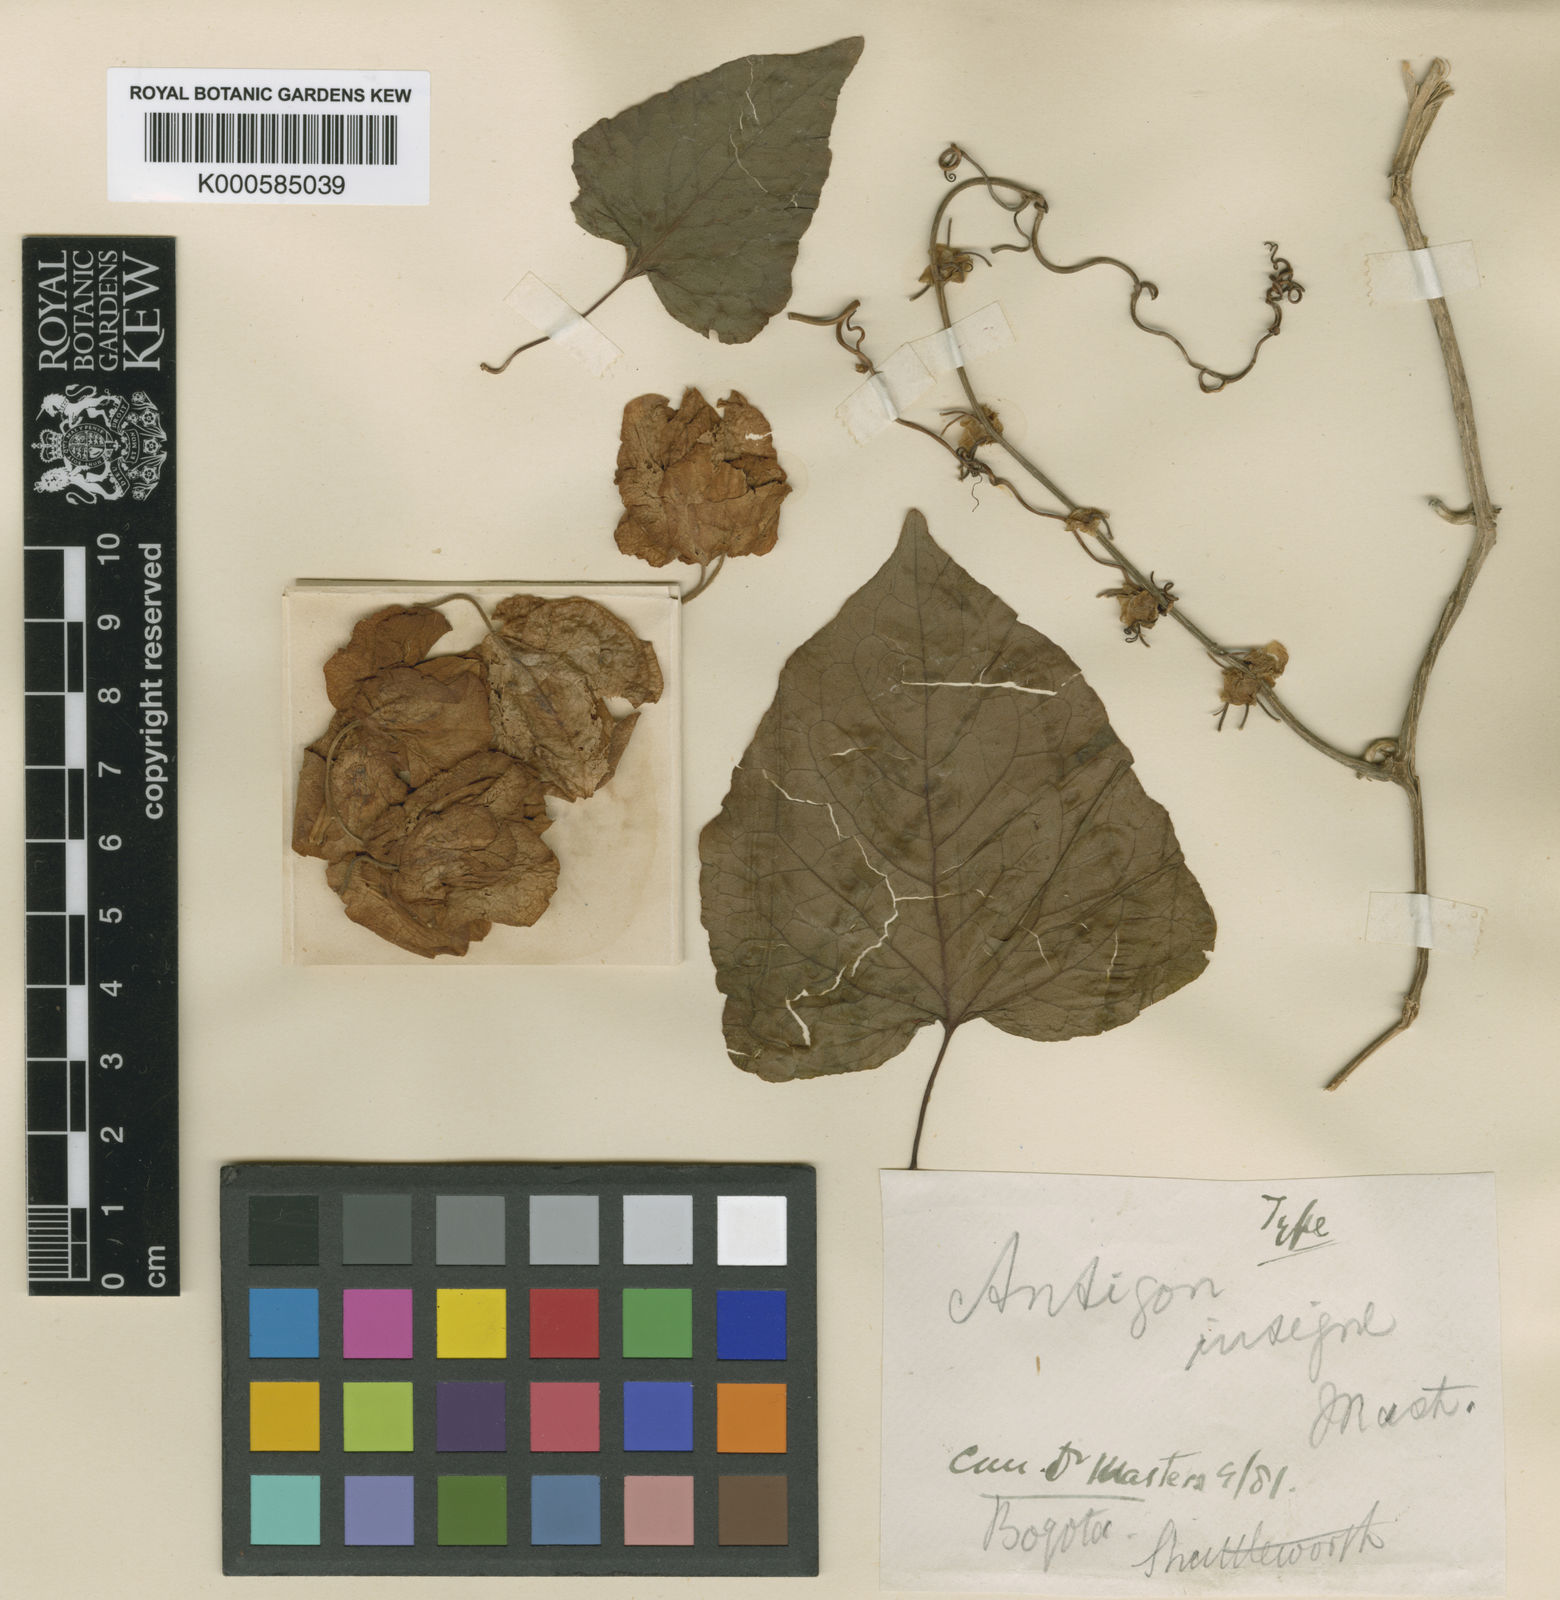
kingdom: Plantae
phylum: Tracheophyta
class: Magnoliopsida
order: Caryophyllales
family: Polygonaceae
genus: Antigonon
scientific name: Antigonon guatimalense
